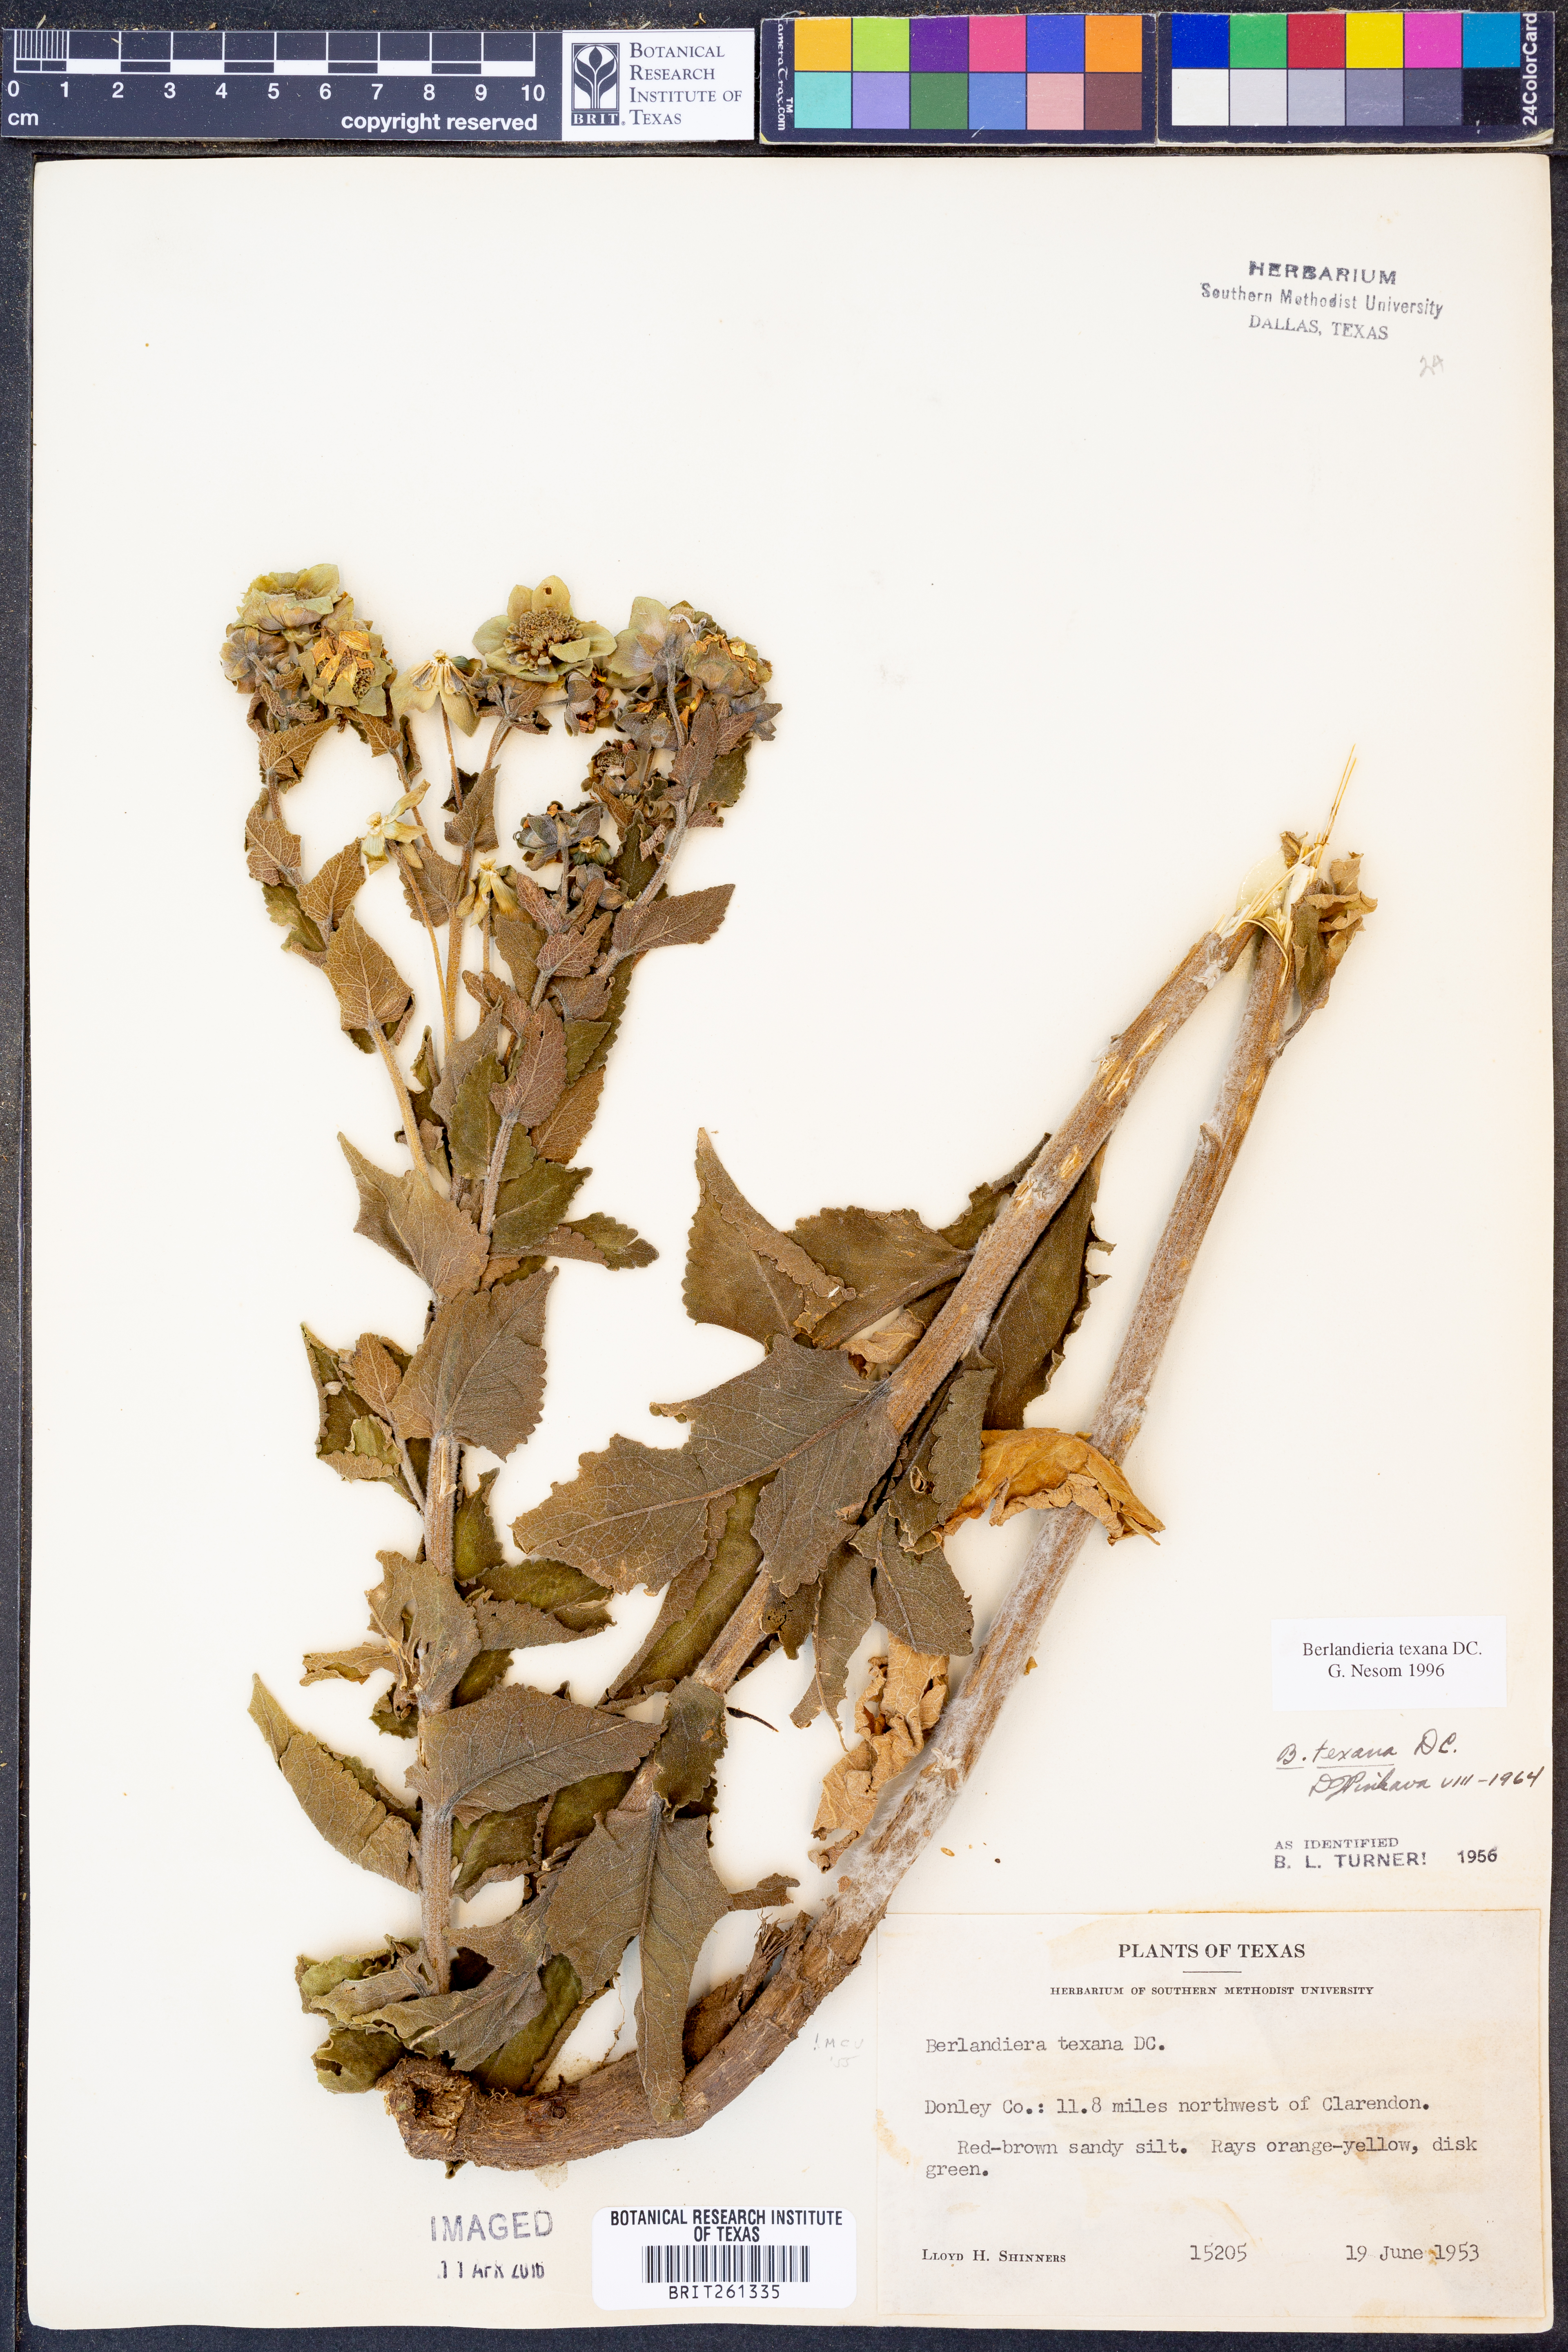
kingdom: Plantae
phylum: Tracheophyta
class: Magnoliopsida
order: Asterales
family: Asteraceae
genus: Berlandiera
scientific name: Berlandiera texana
